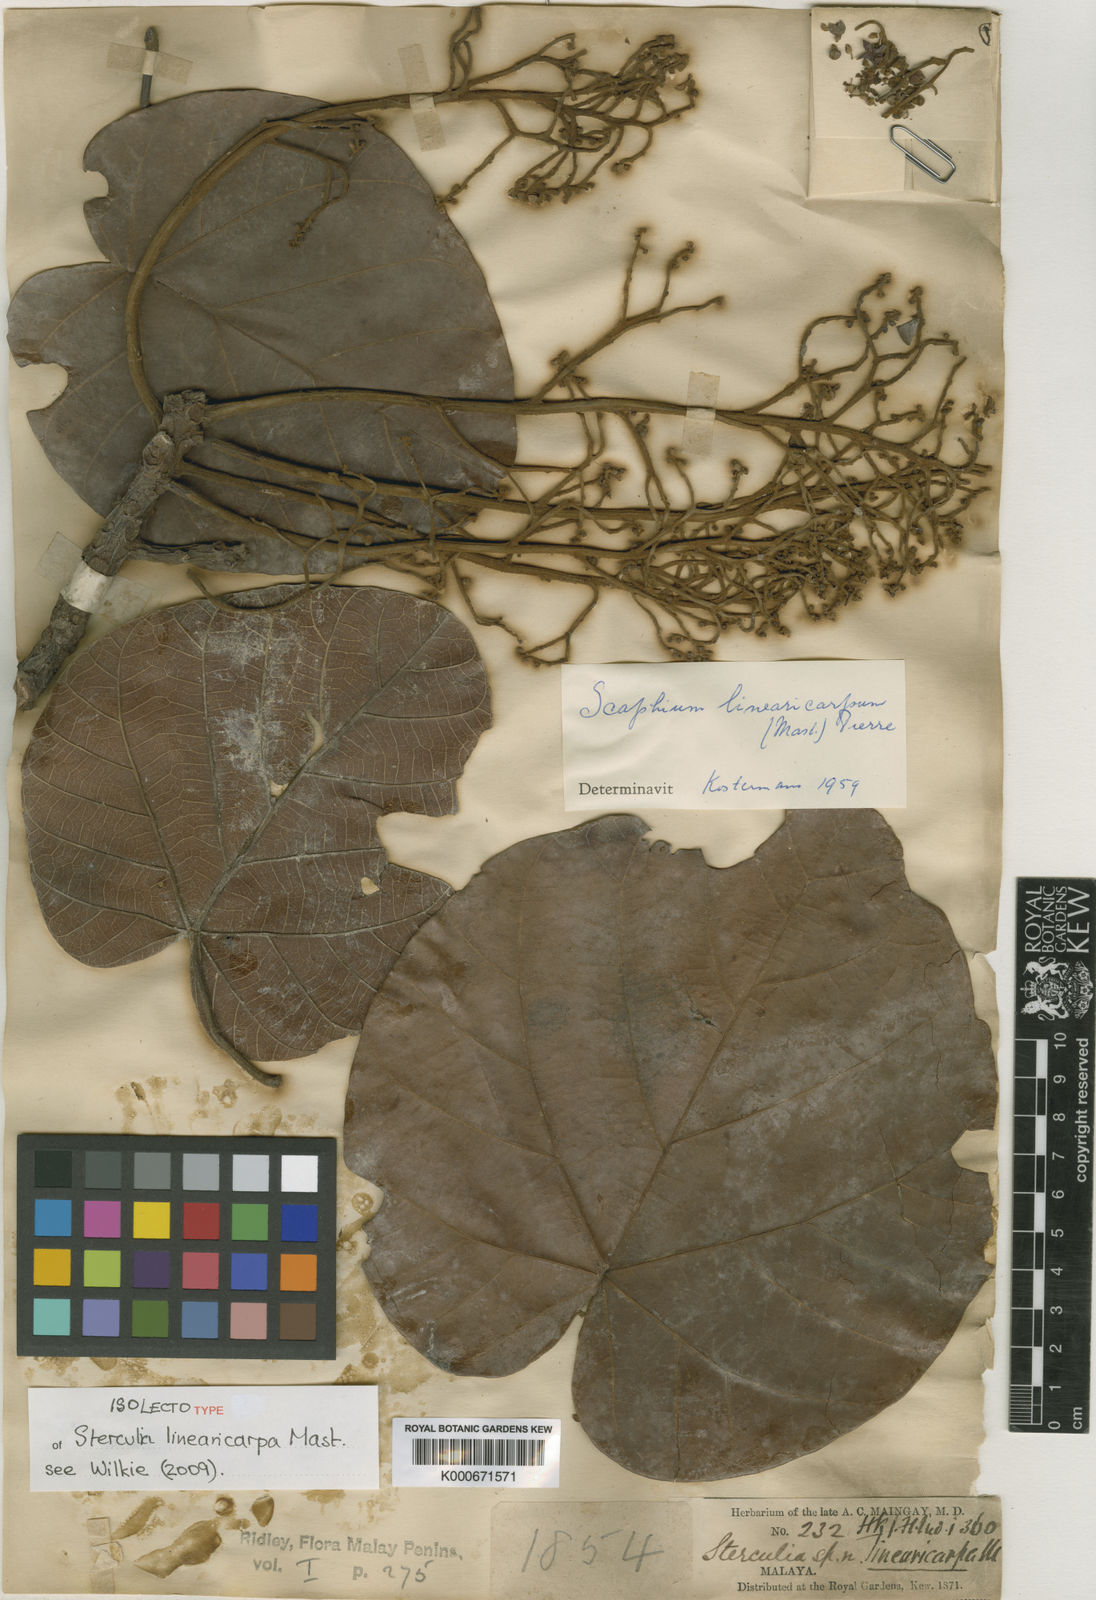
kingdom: Plantae
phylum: Tracheophyta
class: Magnoliopsida
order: Malvales
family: Malvaceae
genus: Scaphium
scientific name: Scaphium linearicarpum
